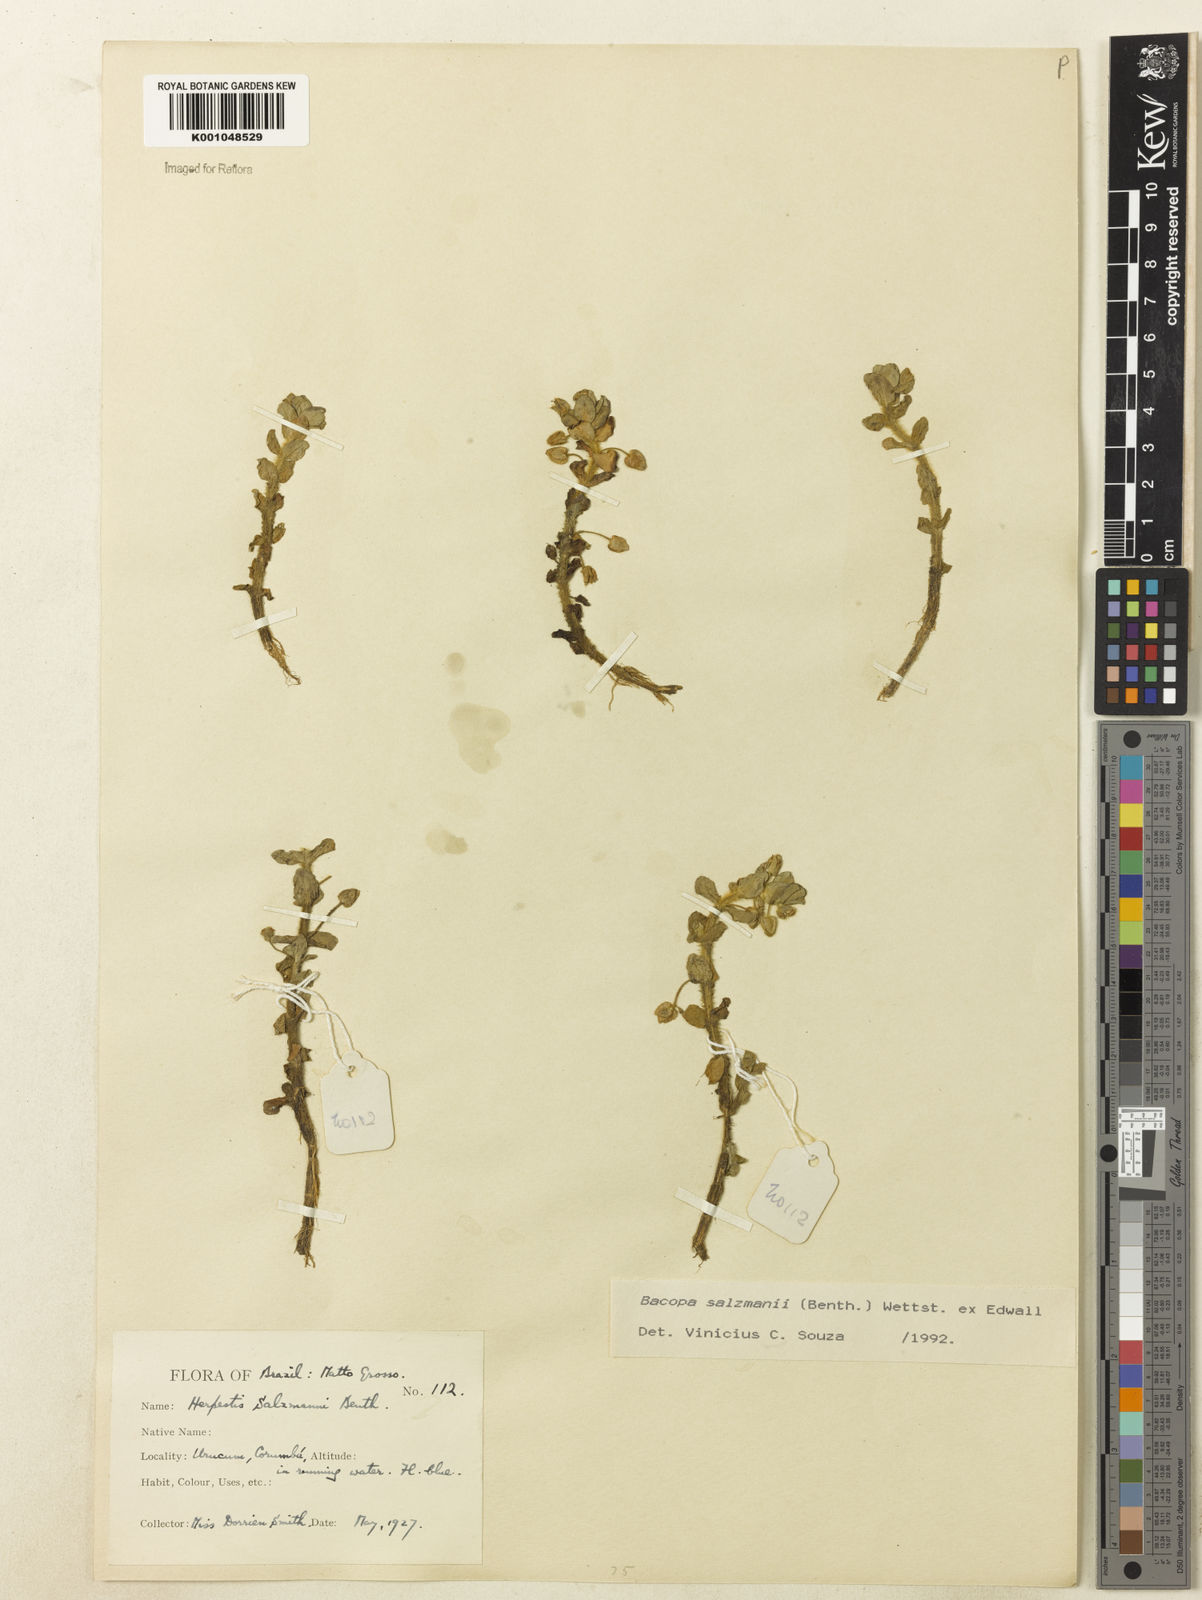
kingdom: Plantae
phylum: Tracheophyta
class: Magnoliopsida
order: Lamiales
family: Plantaginaceae
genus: Bacopa
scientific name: Bacopa salzmannii
